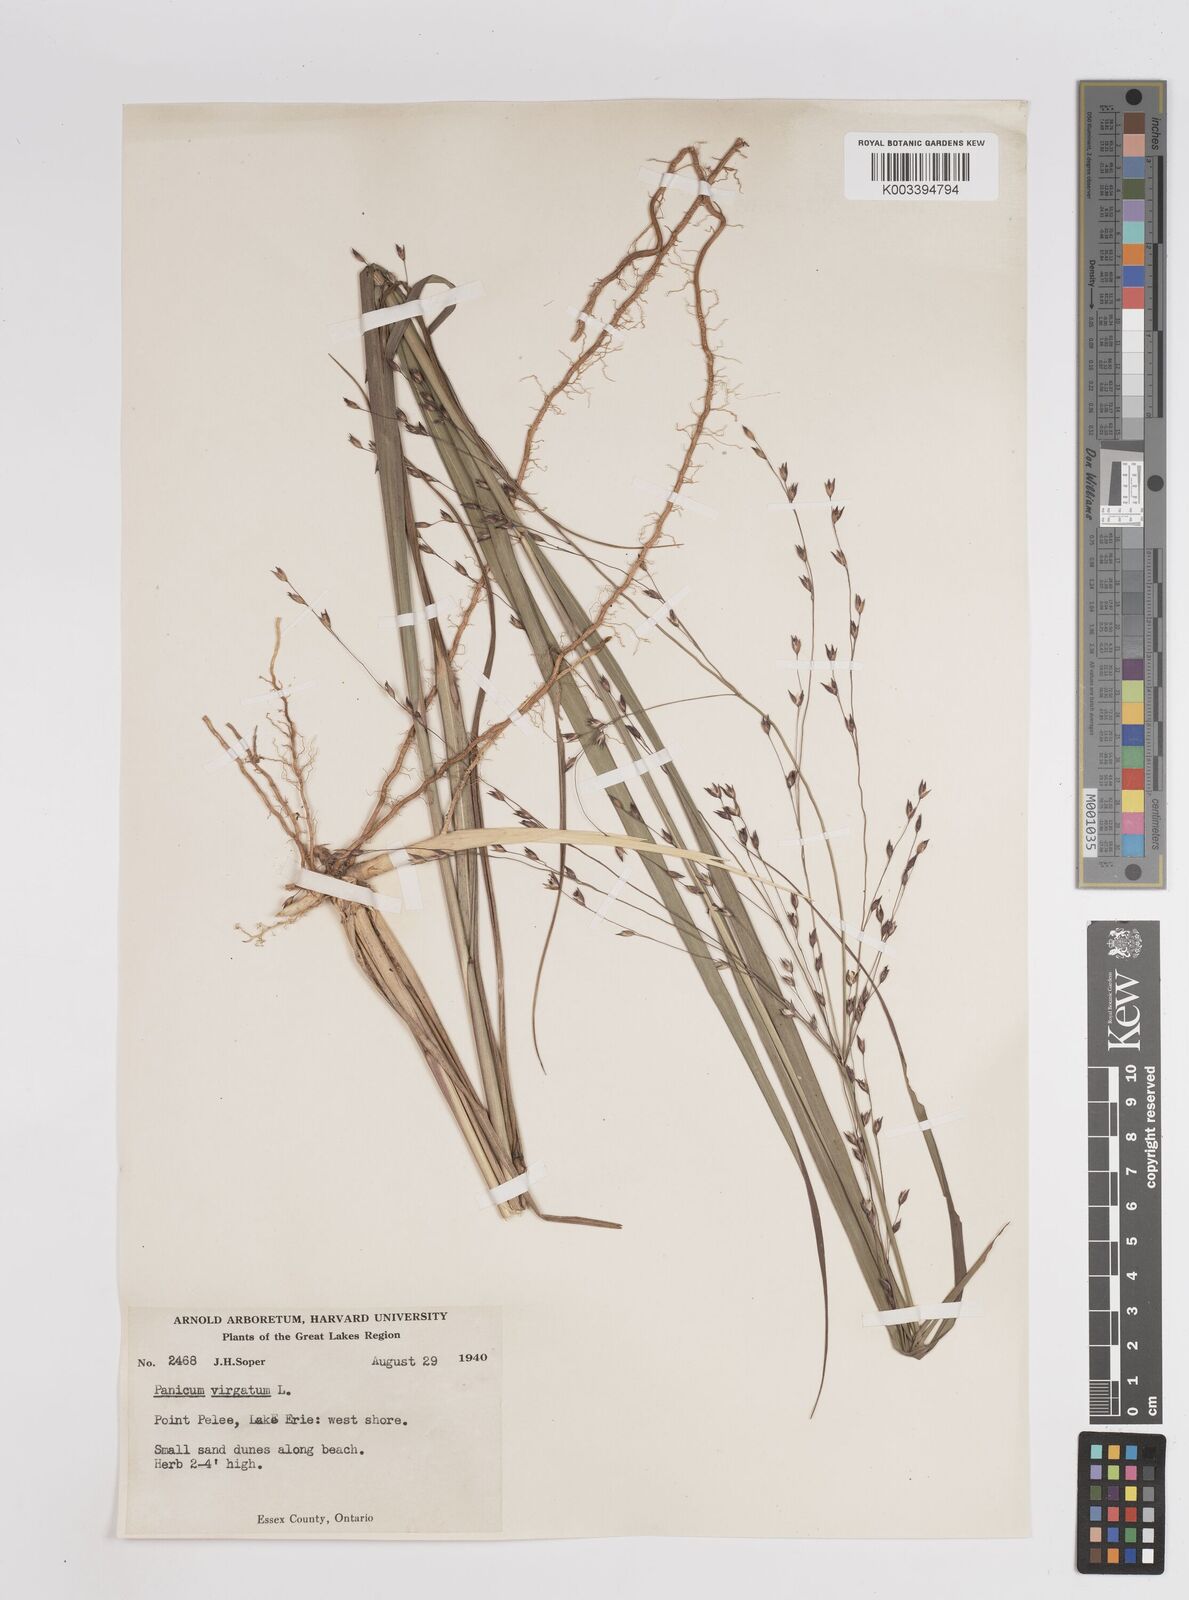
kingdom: Plantae
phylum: Tracheophyta
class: Liliopsida
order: Poales
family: Poaceae
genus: Panicum
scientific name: Panicum virgatum
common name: Switchgrass
